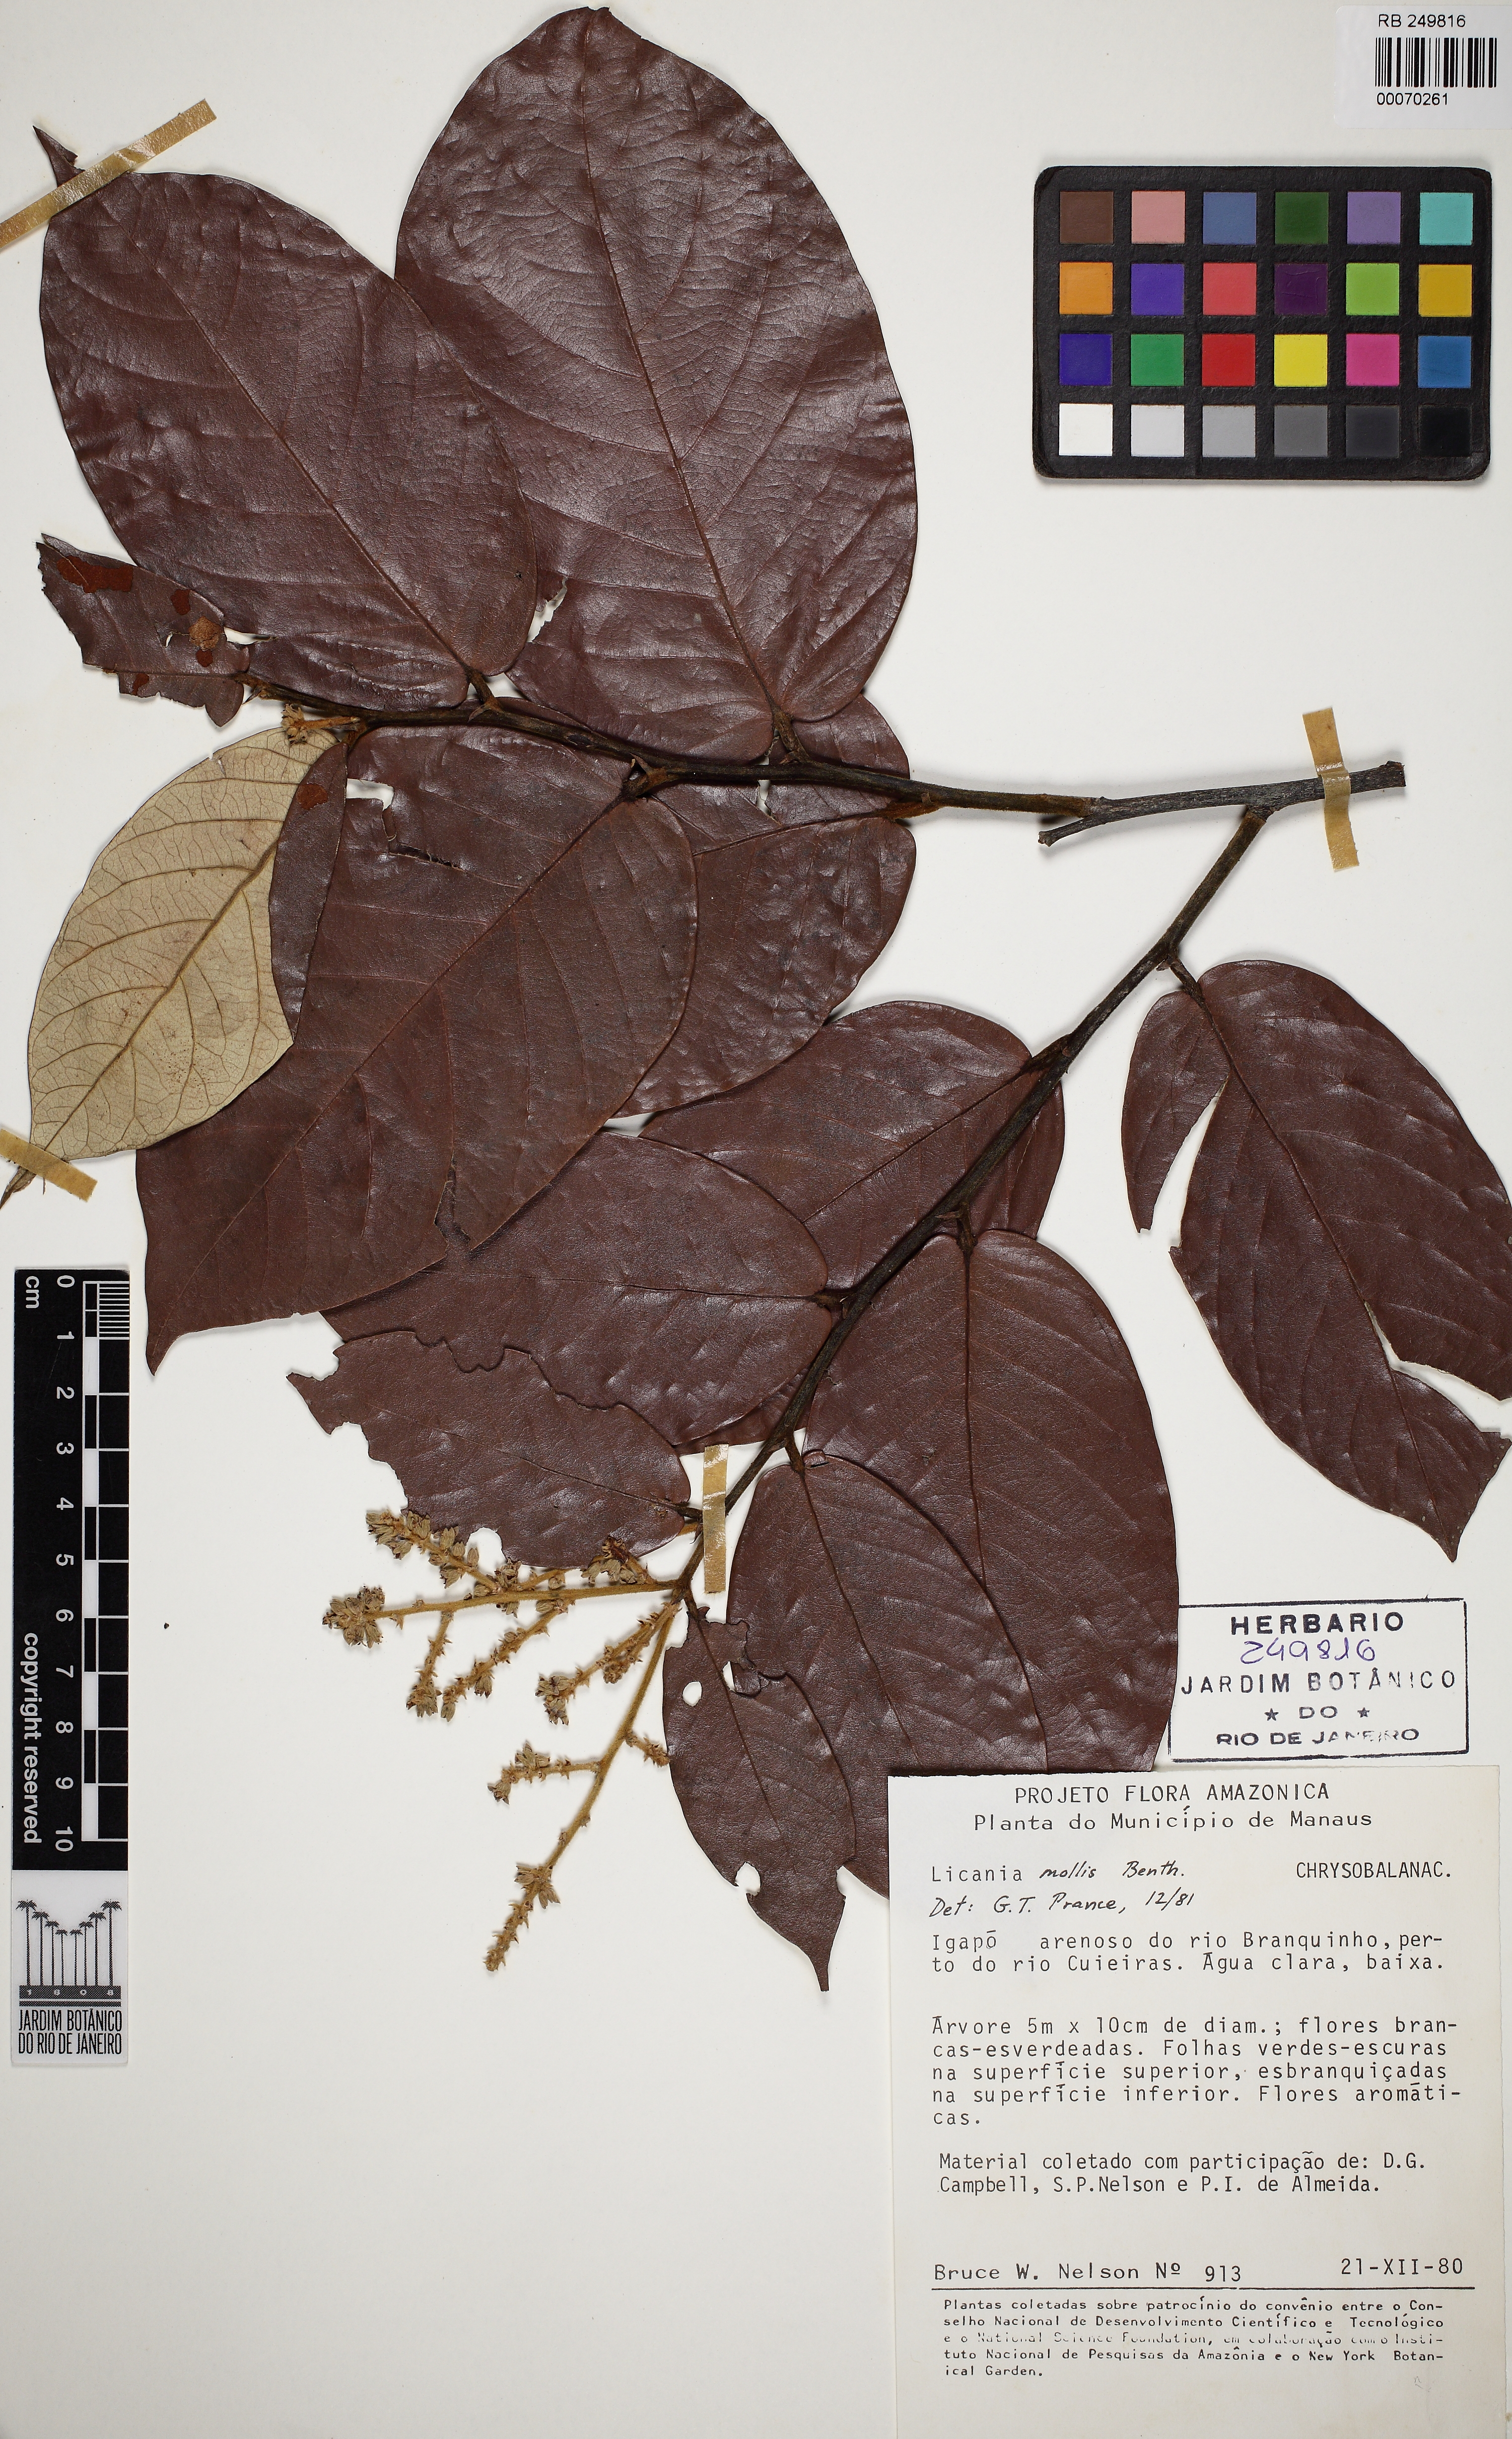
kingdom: Plantae
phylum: Tracheophyta
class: Magnoliopsida
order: Malpighiales
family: Chrysobalanaceae
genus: Licania
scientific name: Licania mollis
